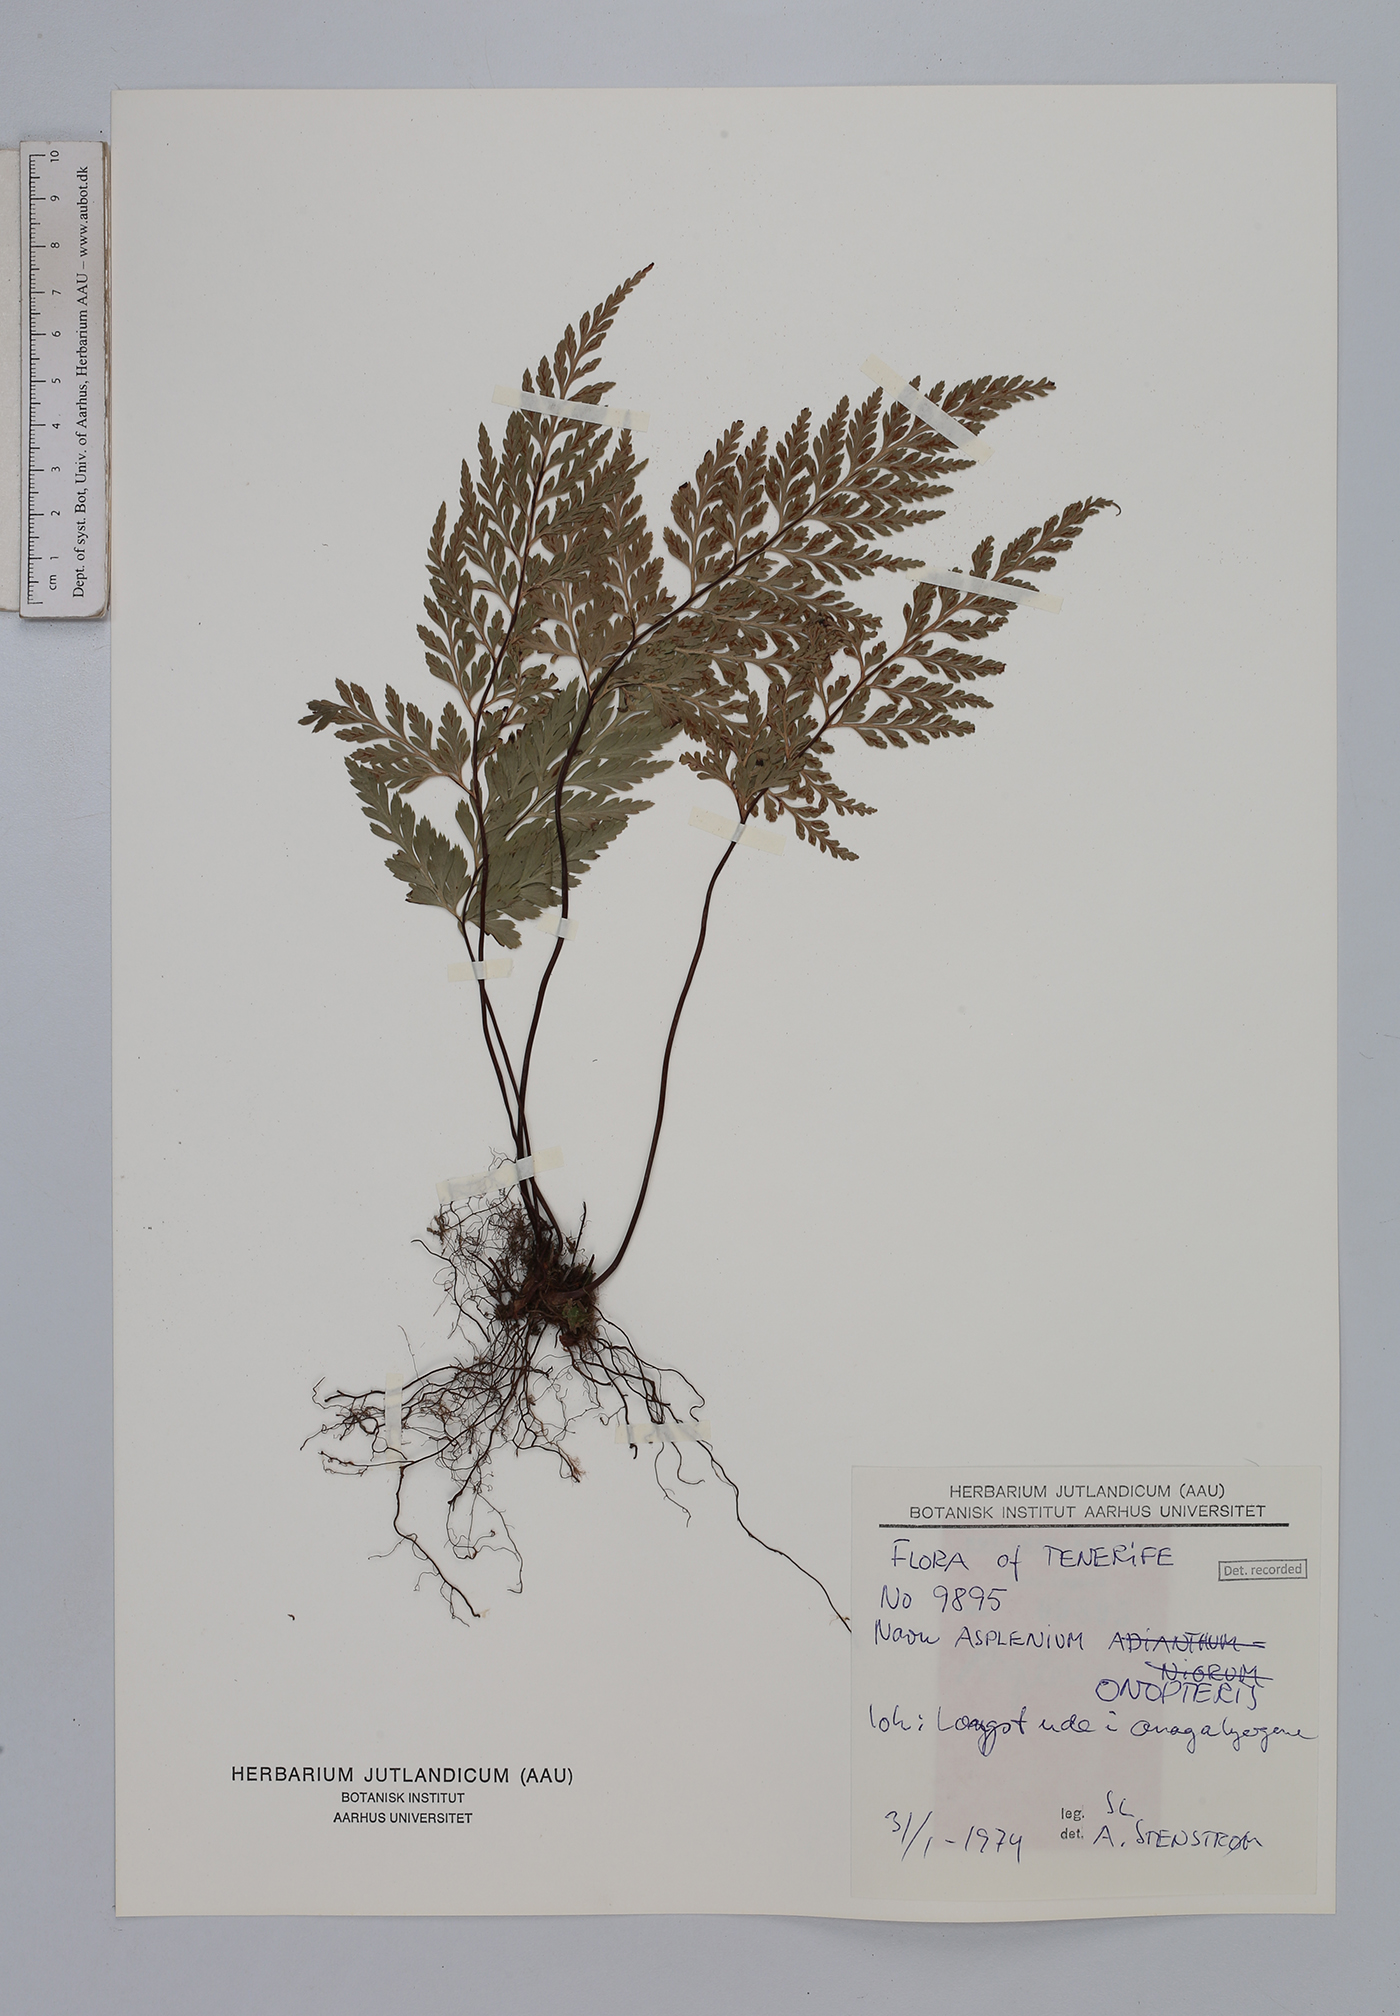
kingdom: Plantae
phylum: Tracheophyta
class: Polypodiopsida
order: Polypodiales
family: Aspleniaceae
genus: Asplenium
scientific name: Asplenium onopteris
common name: Irish spleenwort
